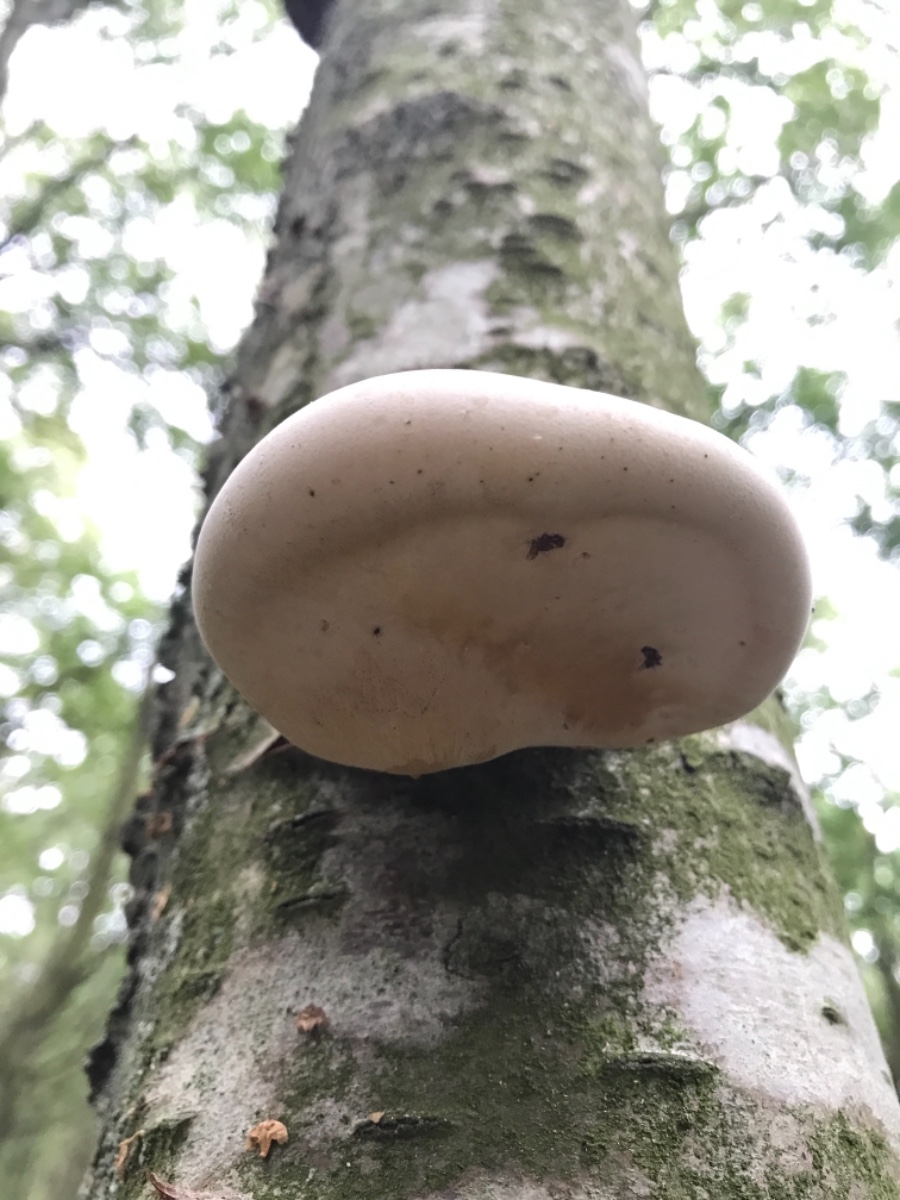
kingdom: Fungi
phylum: Basidiomycota
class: Agaricomycetes
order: Polyporales
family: Fomitopsidaceae
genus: Fomitopsis
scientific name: Fomitopsis betulina
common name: birkeporesvamp
